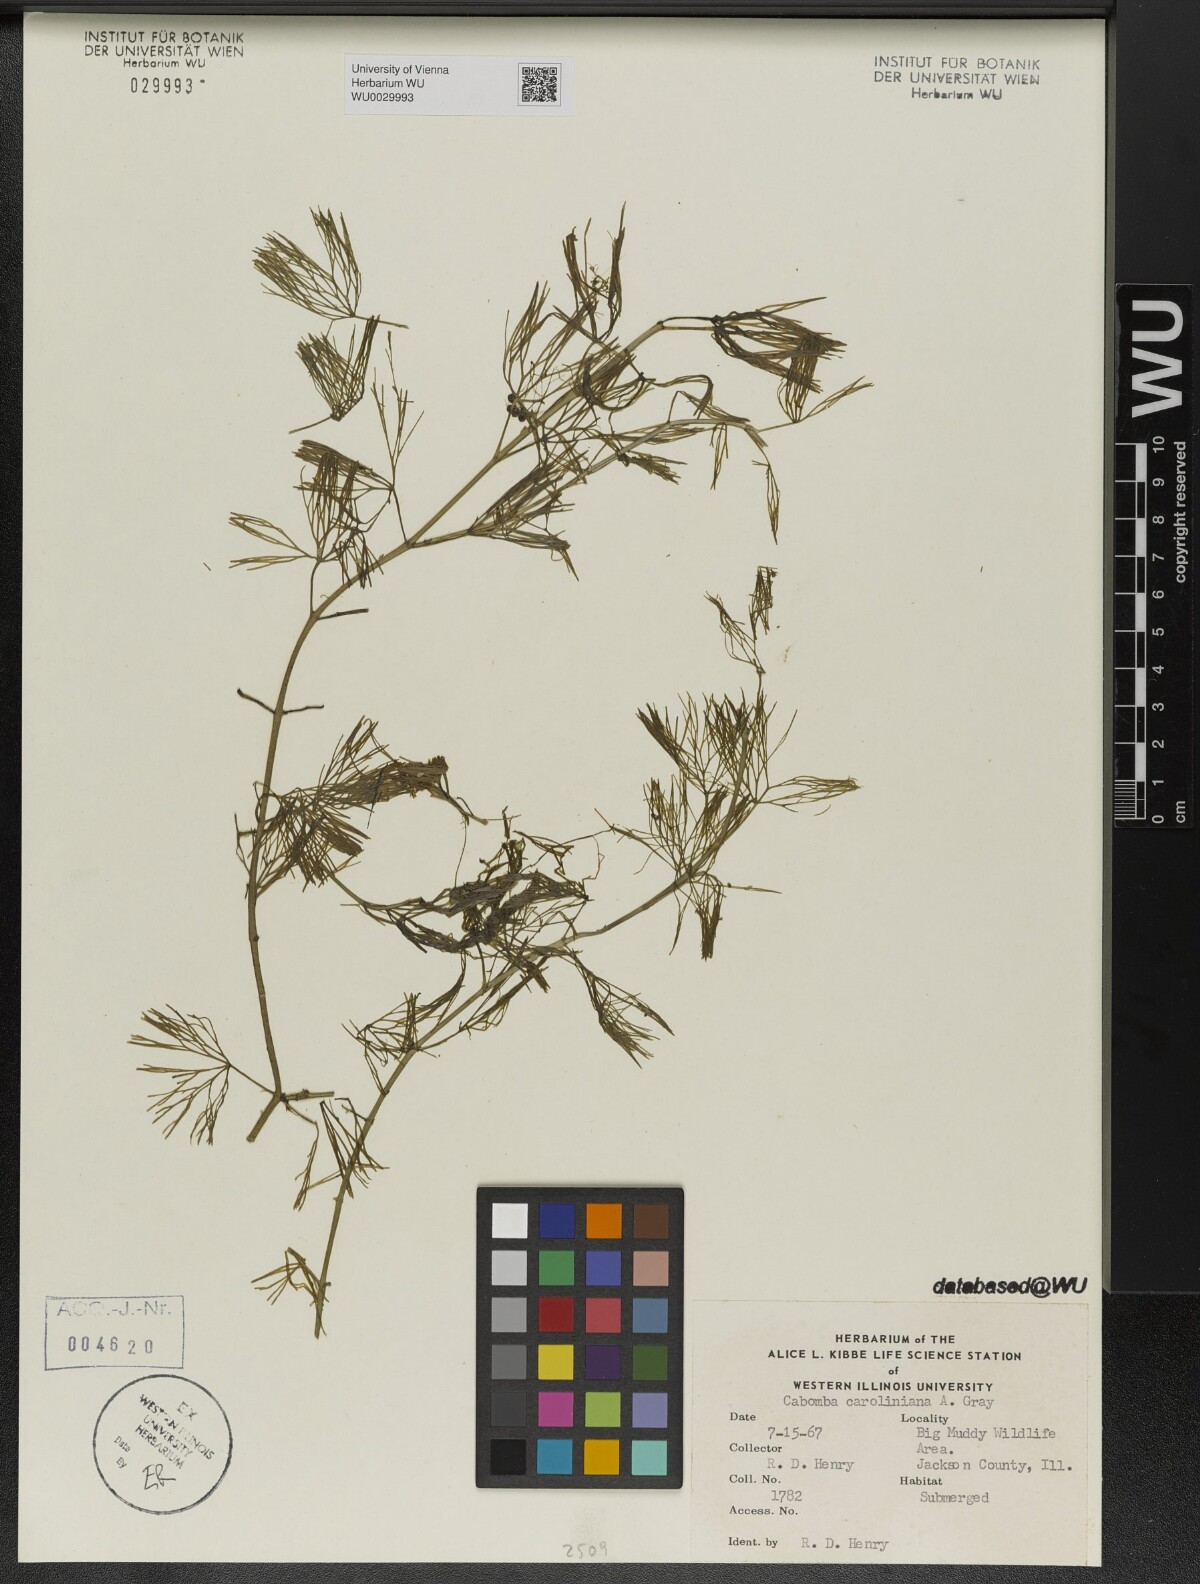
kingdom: Plantae
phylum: Tracheophyta
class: Magnoliopsida
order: Nymphaeales
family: Cabombaceae
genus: Cabomba
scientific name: Cabomba caroliniana
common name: Fanwort
